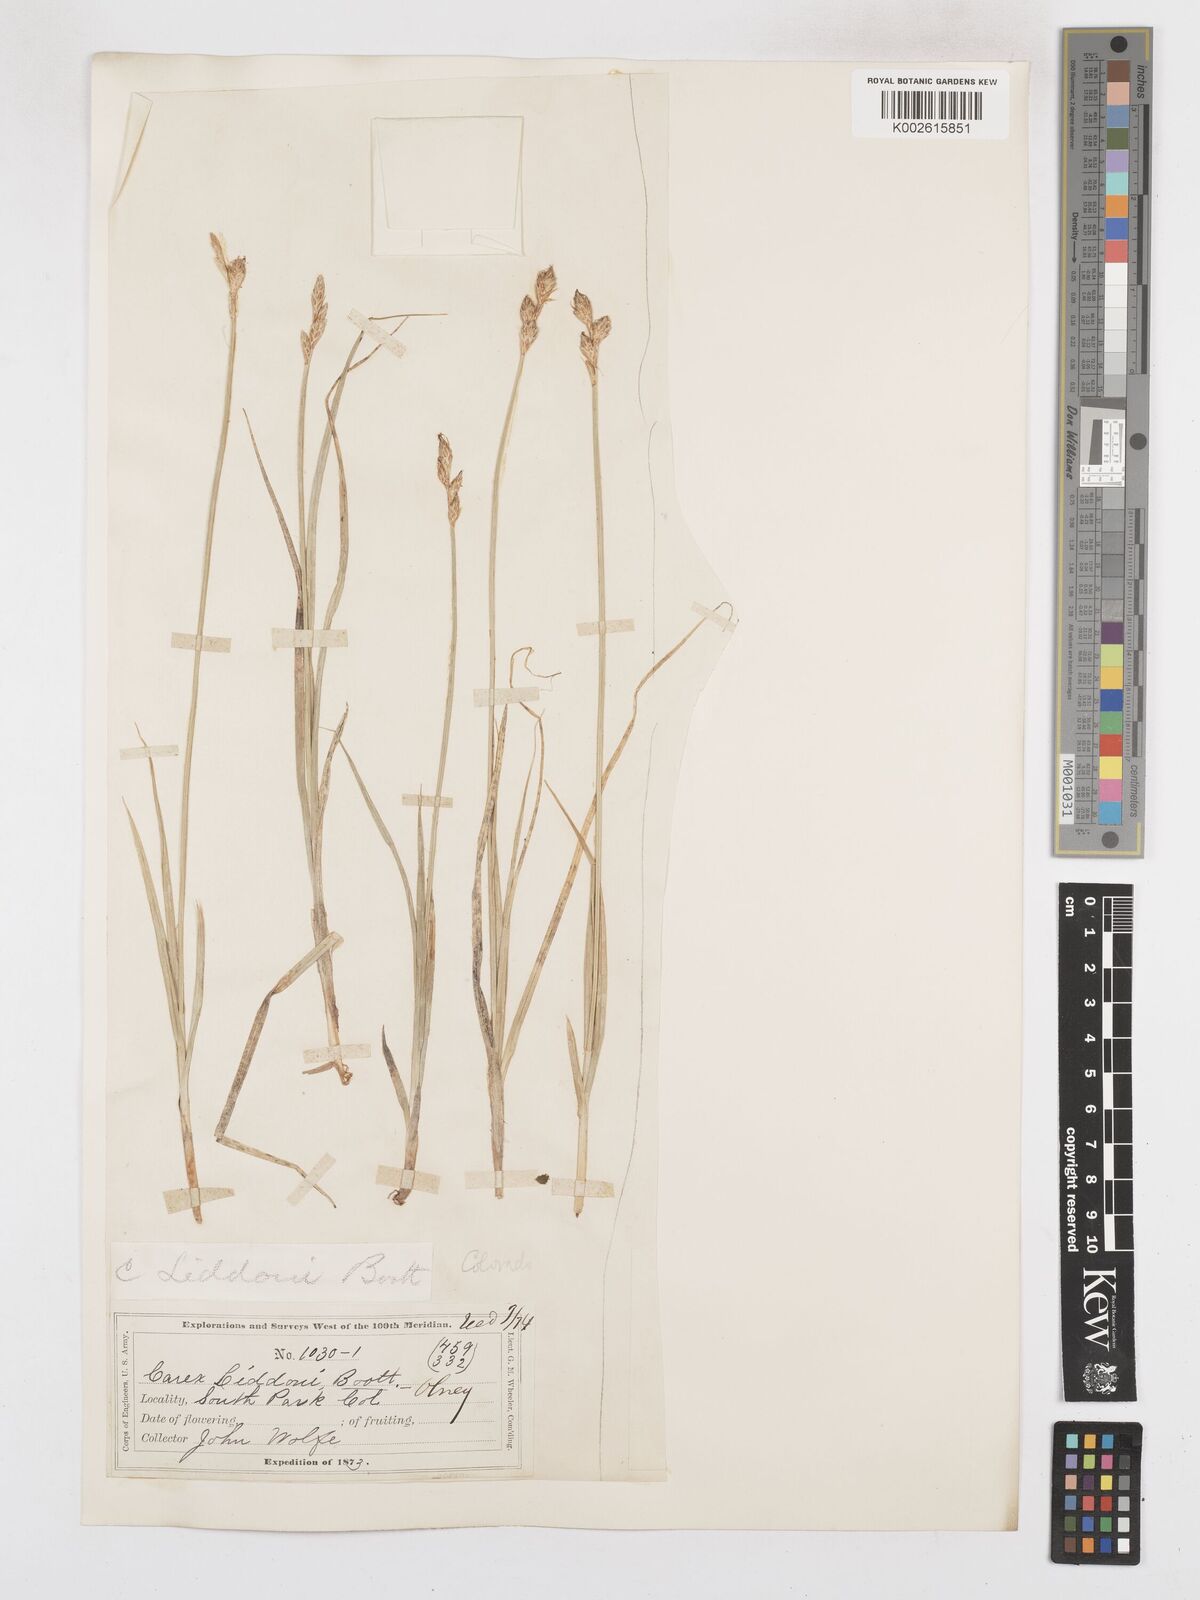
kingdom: Plantae
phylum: Tracheophyta
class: Liliopsida
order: Poales
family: Cyperaceae
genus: Carex
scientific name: Carex specifica
